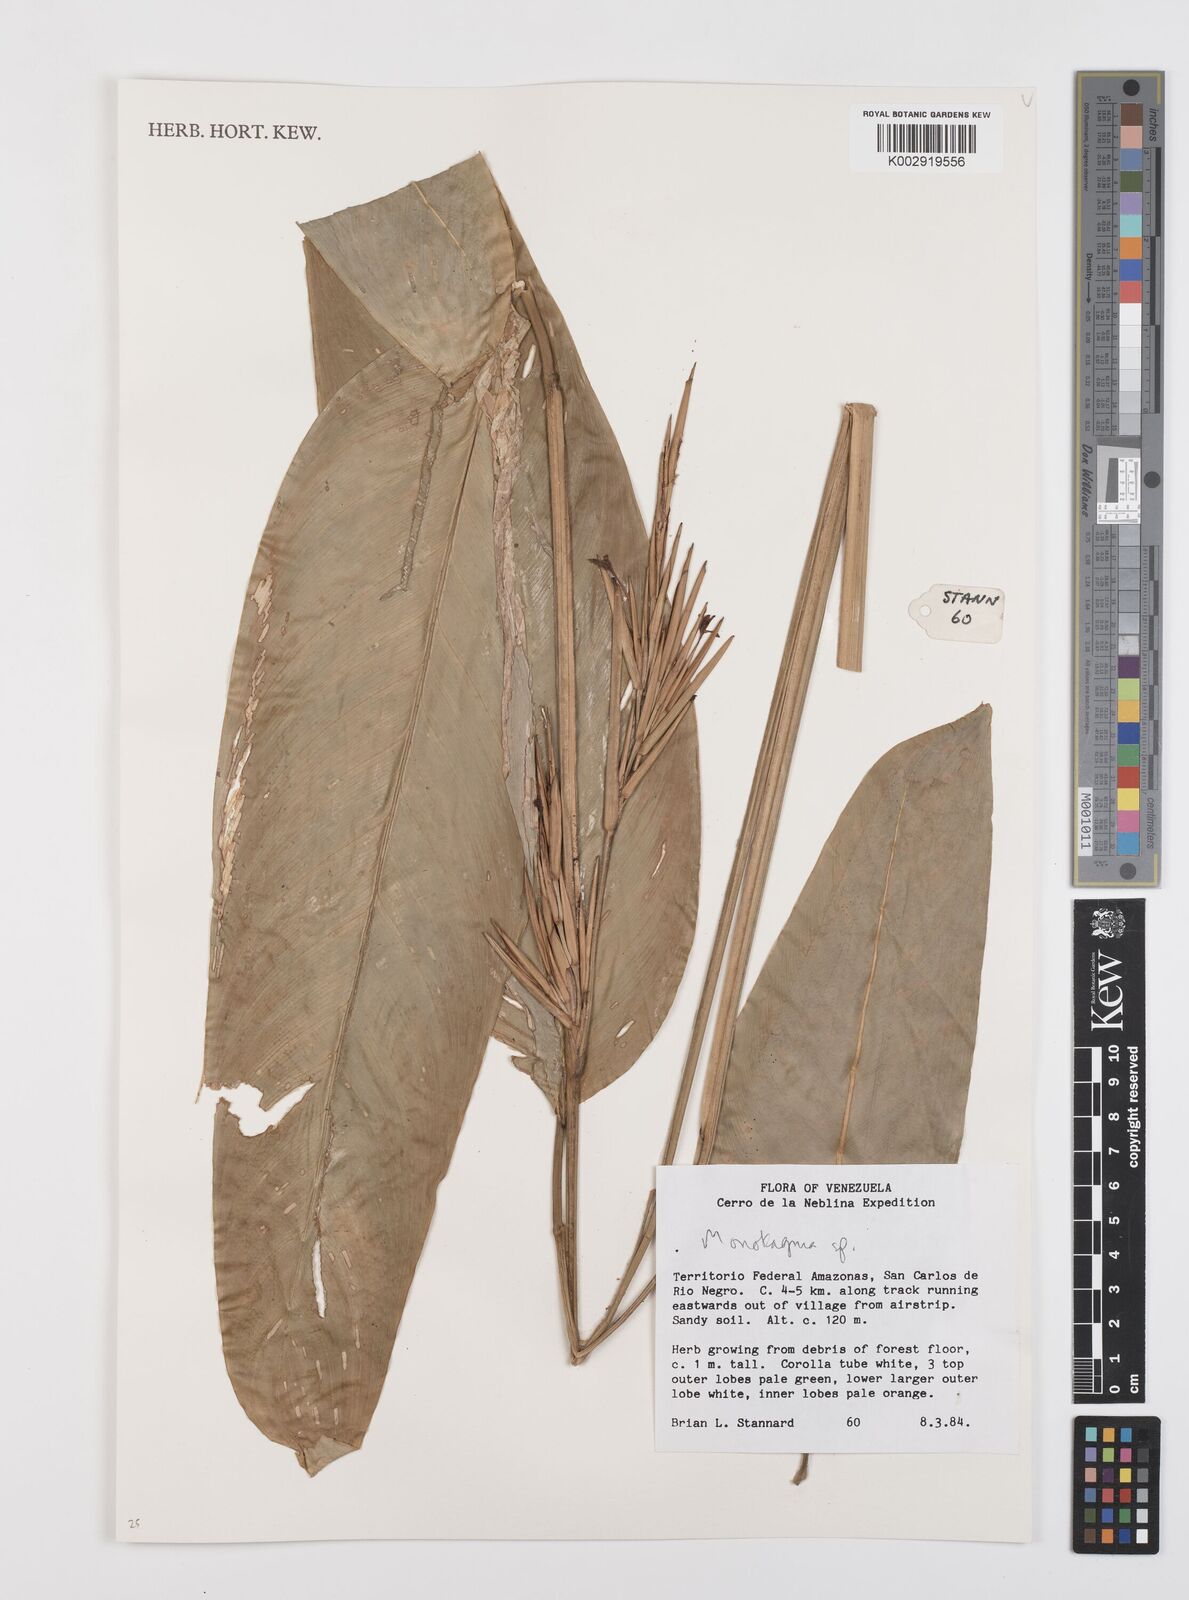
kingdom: Plantae
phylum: Tracheophyta
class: Liliopsida
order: Zingiberales
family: Marantaceae
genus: Monotagma
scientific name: Monotagma
